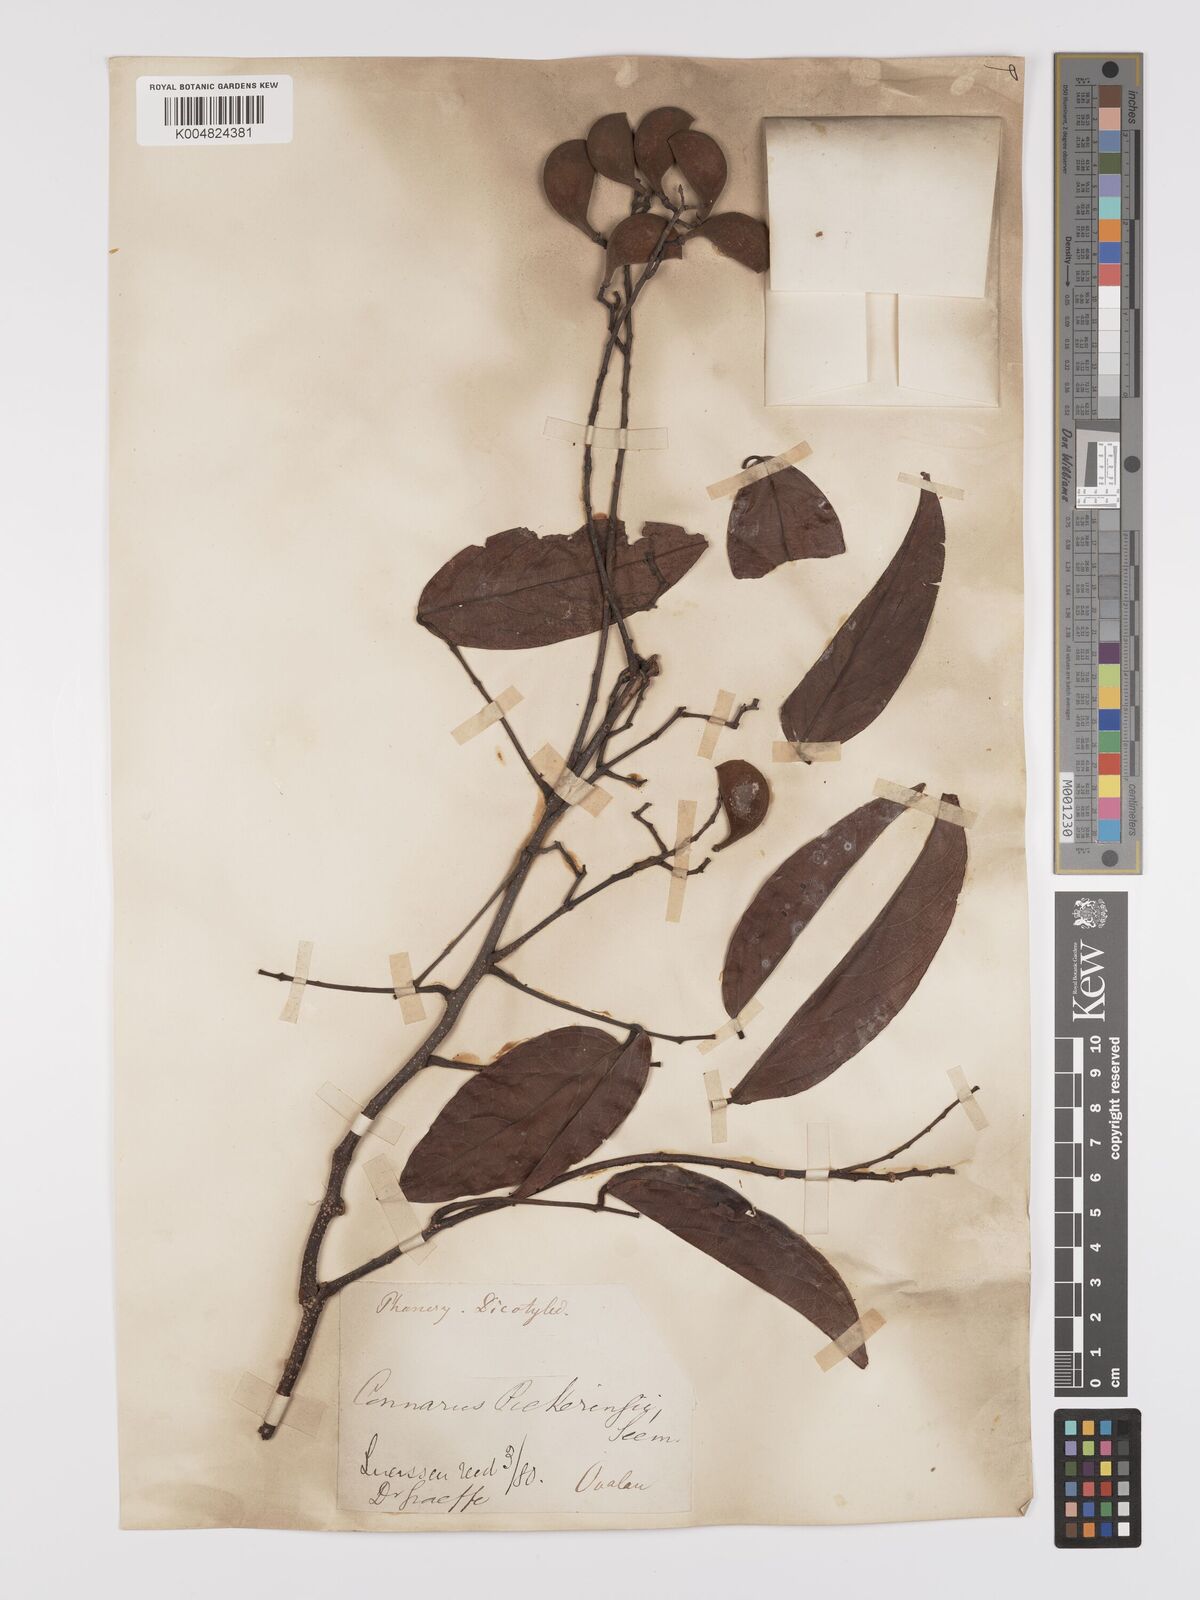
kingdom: Plantae
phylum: Tracheophyta
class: Magnoliopsida
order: Oxalidales
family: Connaraceae
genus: Connarus
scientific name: Connarus pickeringii
